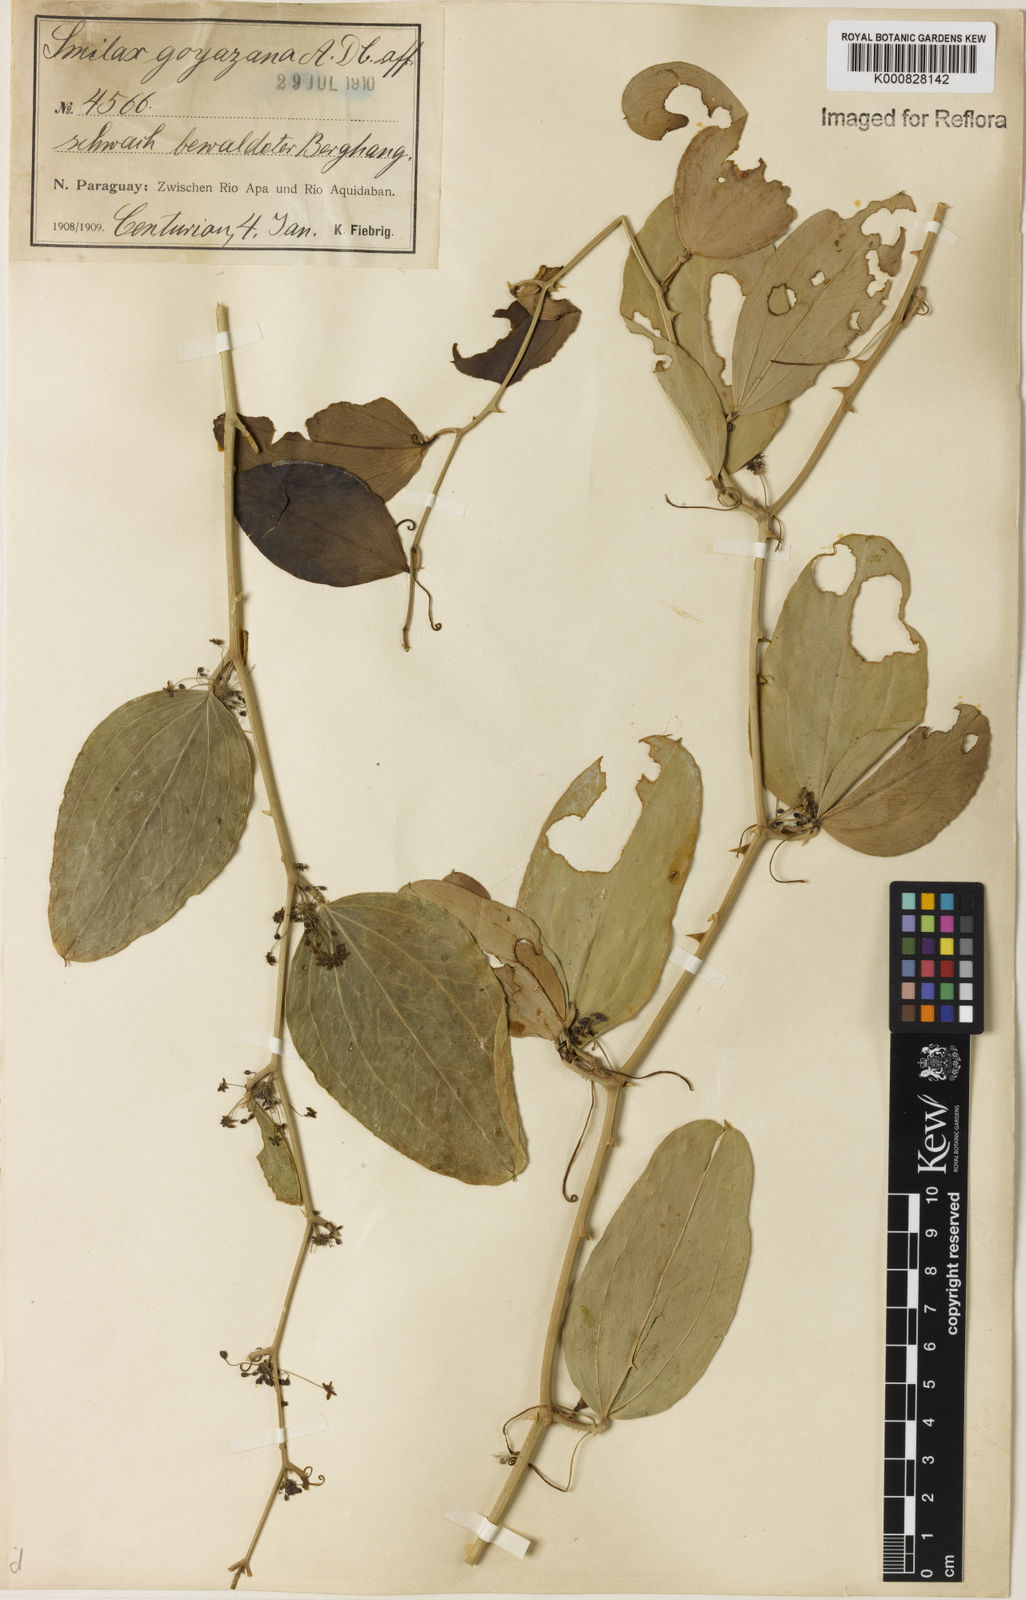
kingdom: Plantae
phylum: Tracheophyta
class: Liliopsida
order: Liliales
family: Smilacaceae
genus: Smilax
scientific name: Smilax goyazana
